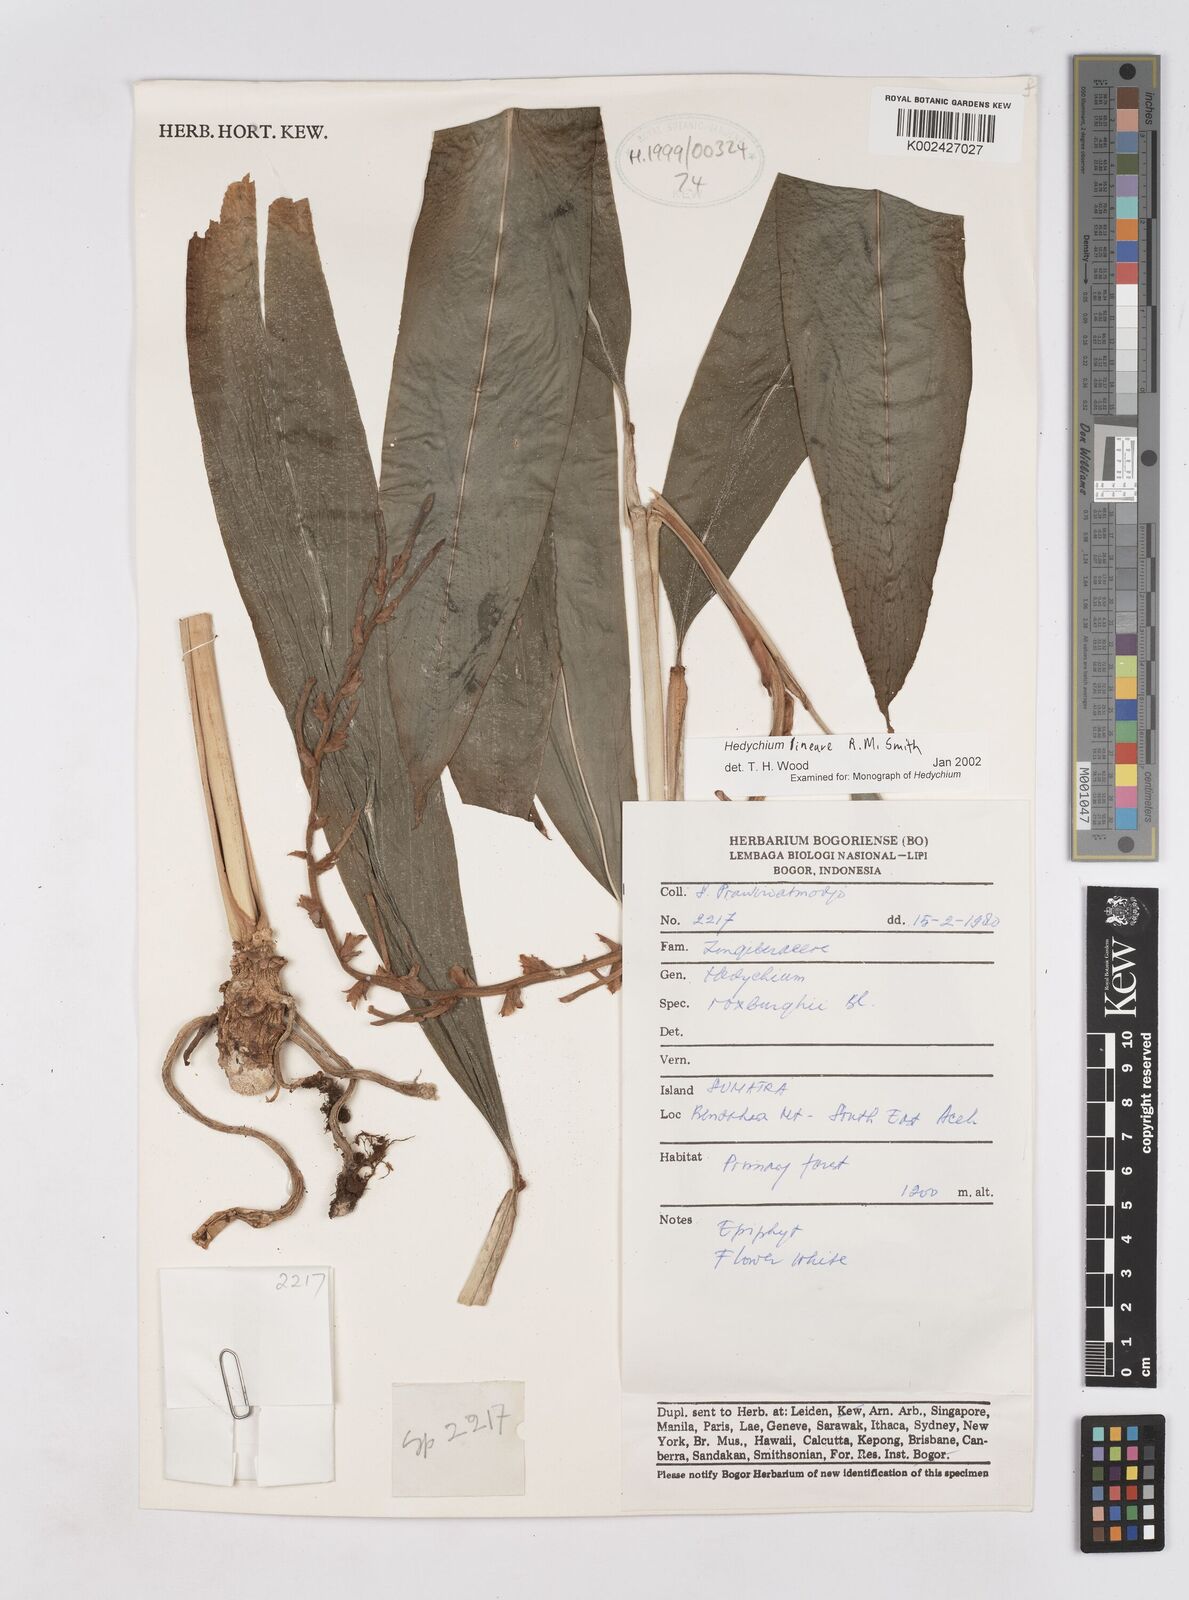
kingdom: Plantae
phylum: Tracheophyta
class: Liliopsida
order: Zingiberales
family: Zingiberaceae
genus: Hedychium
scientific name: Hedychium lineare
